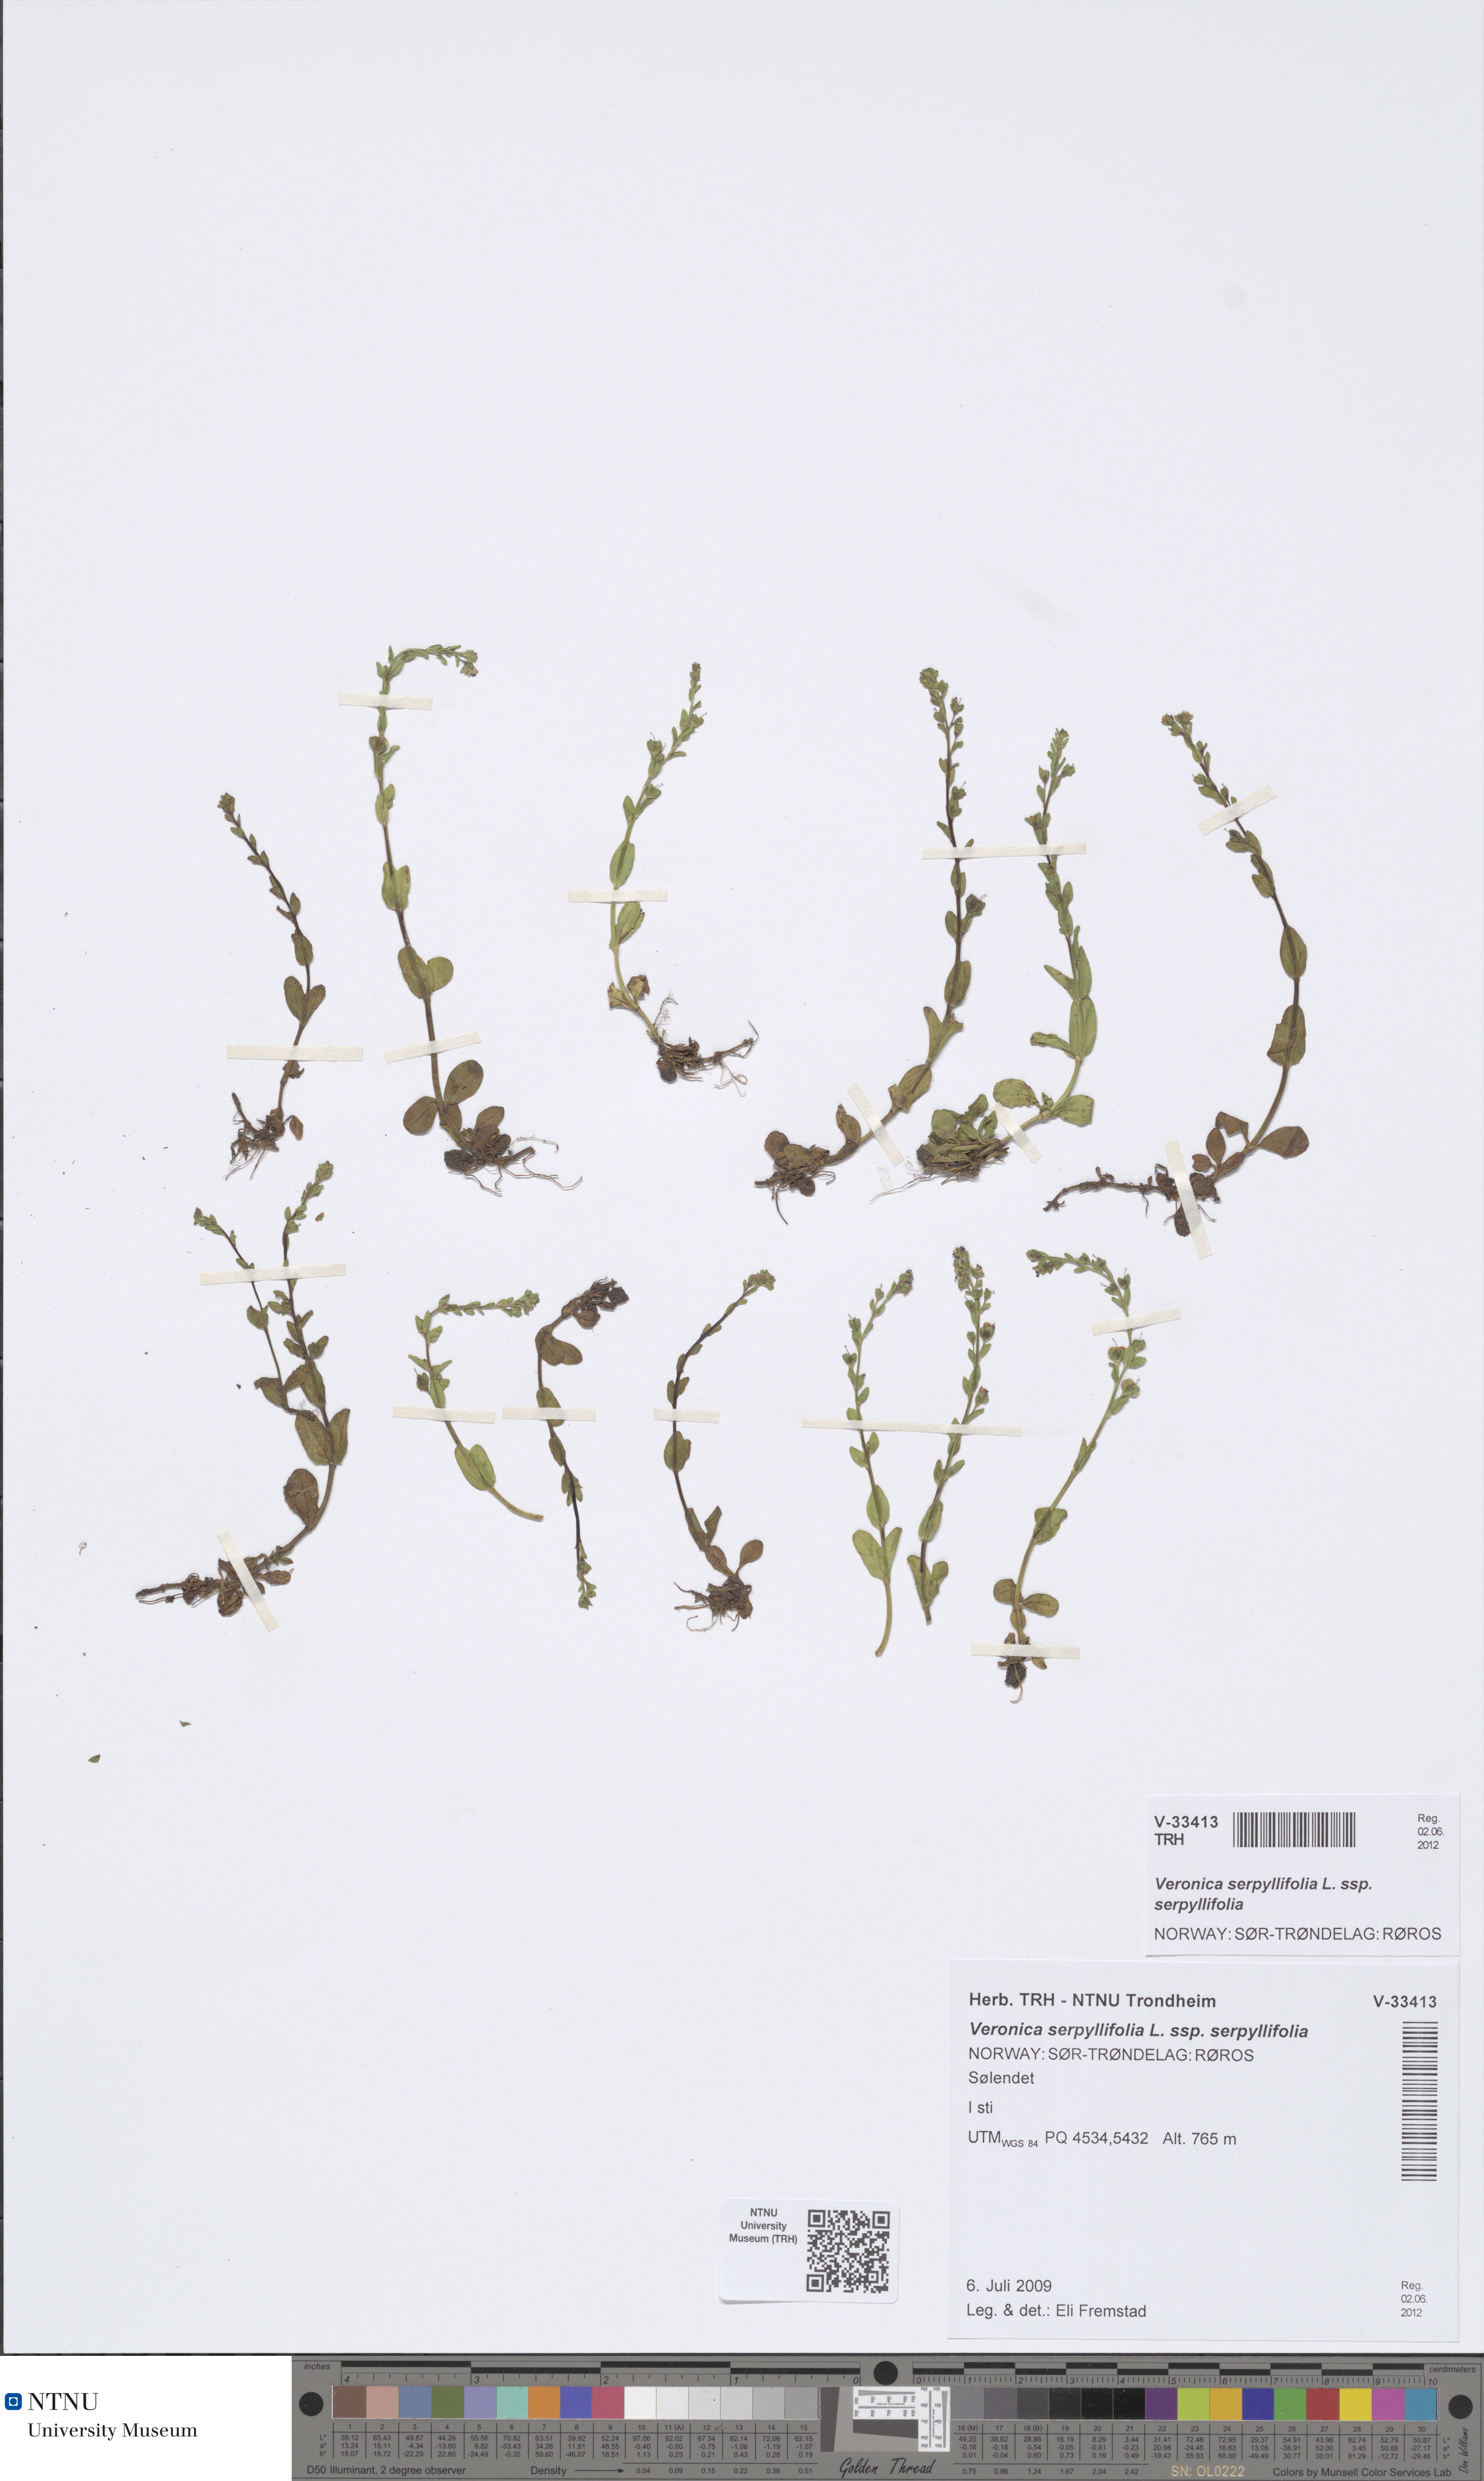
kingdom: Plantae
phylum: Tracheophyta
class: Magnoliopsida
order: Lamiales
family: Plantaginaceae
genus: Veronica
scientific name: Veronica serpyllifolia
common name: Thyme-leaved speedwell
